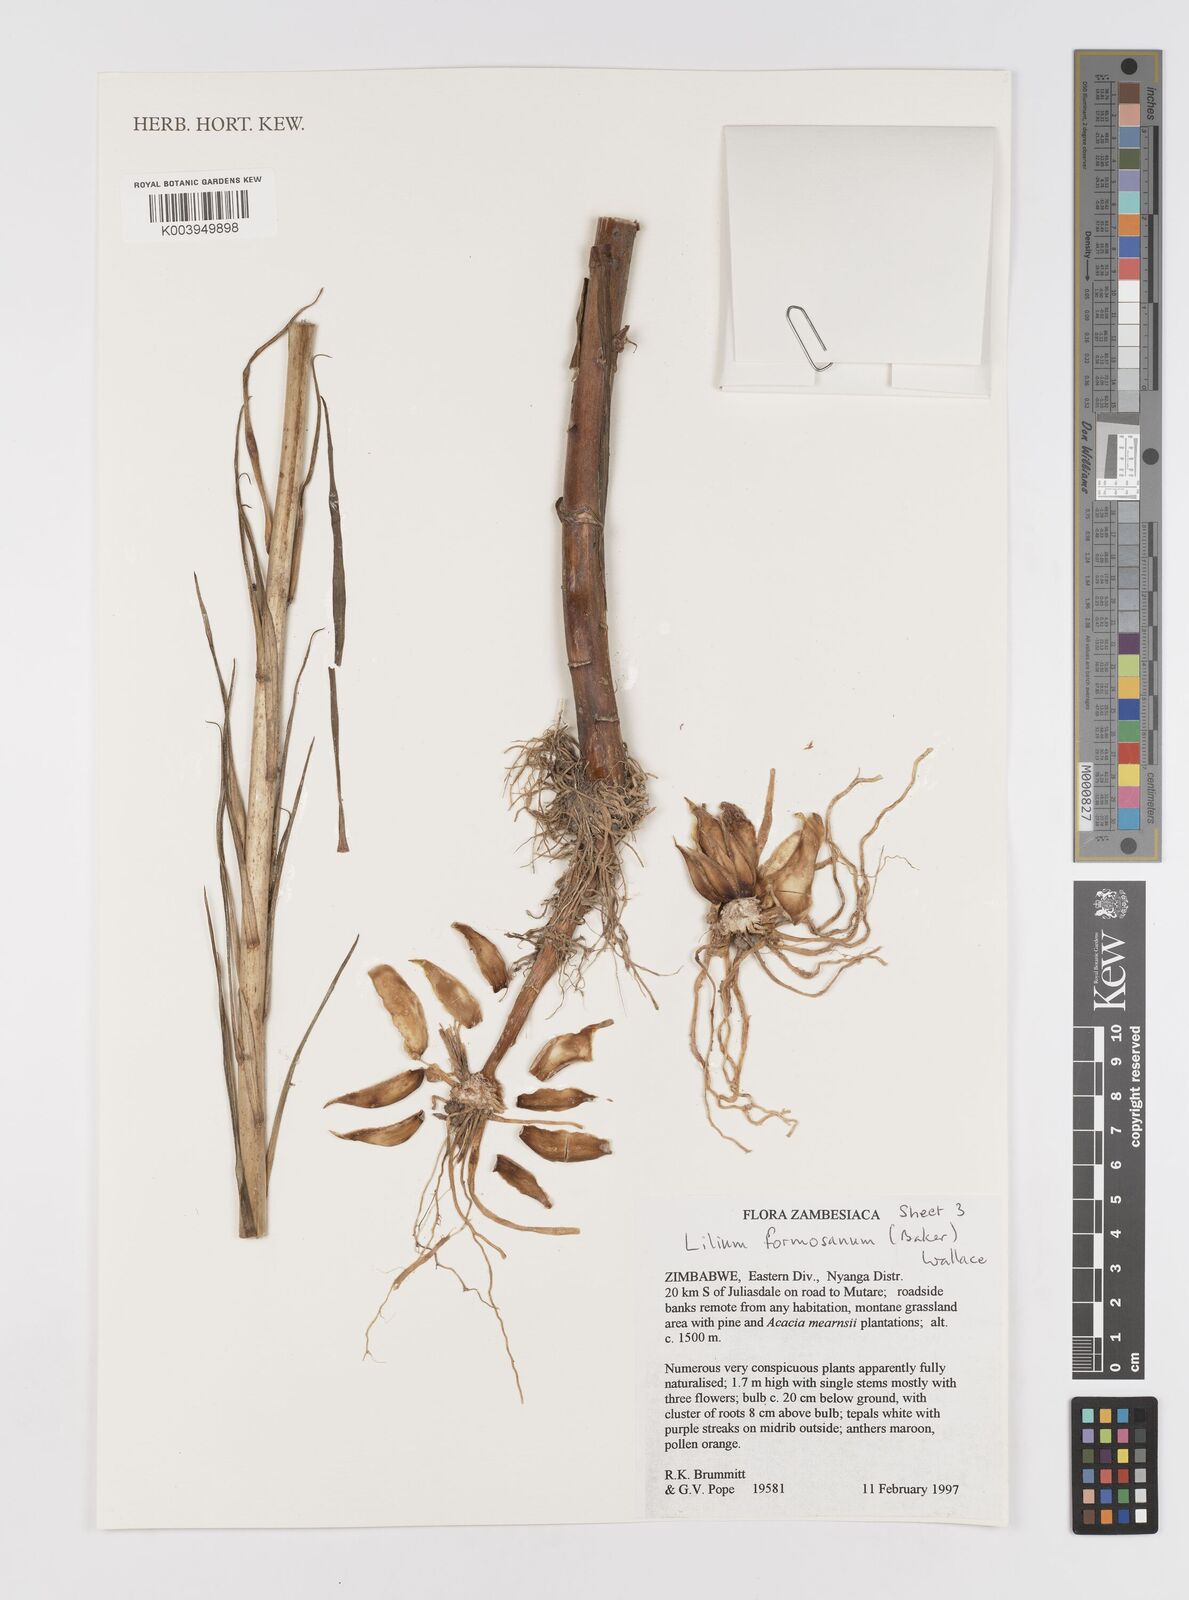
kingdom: Plantae
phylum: Tracheophyta
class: Liliopsida
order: Liliales
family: Liliaceae
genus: Lilium
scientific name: Lilium formosanum
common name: Formosa lily
